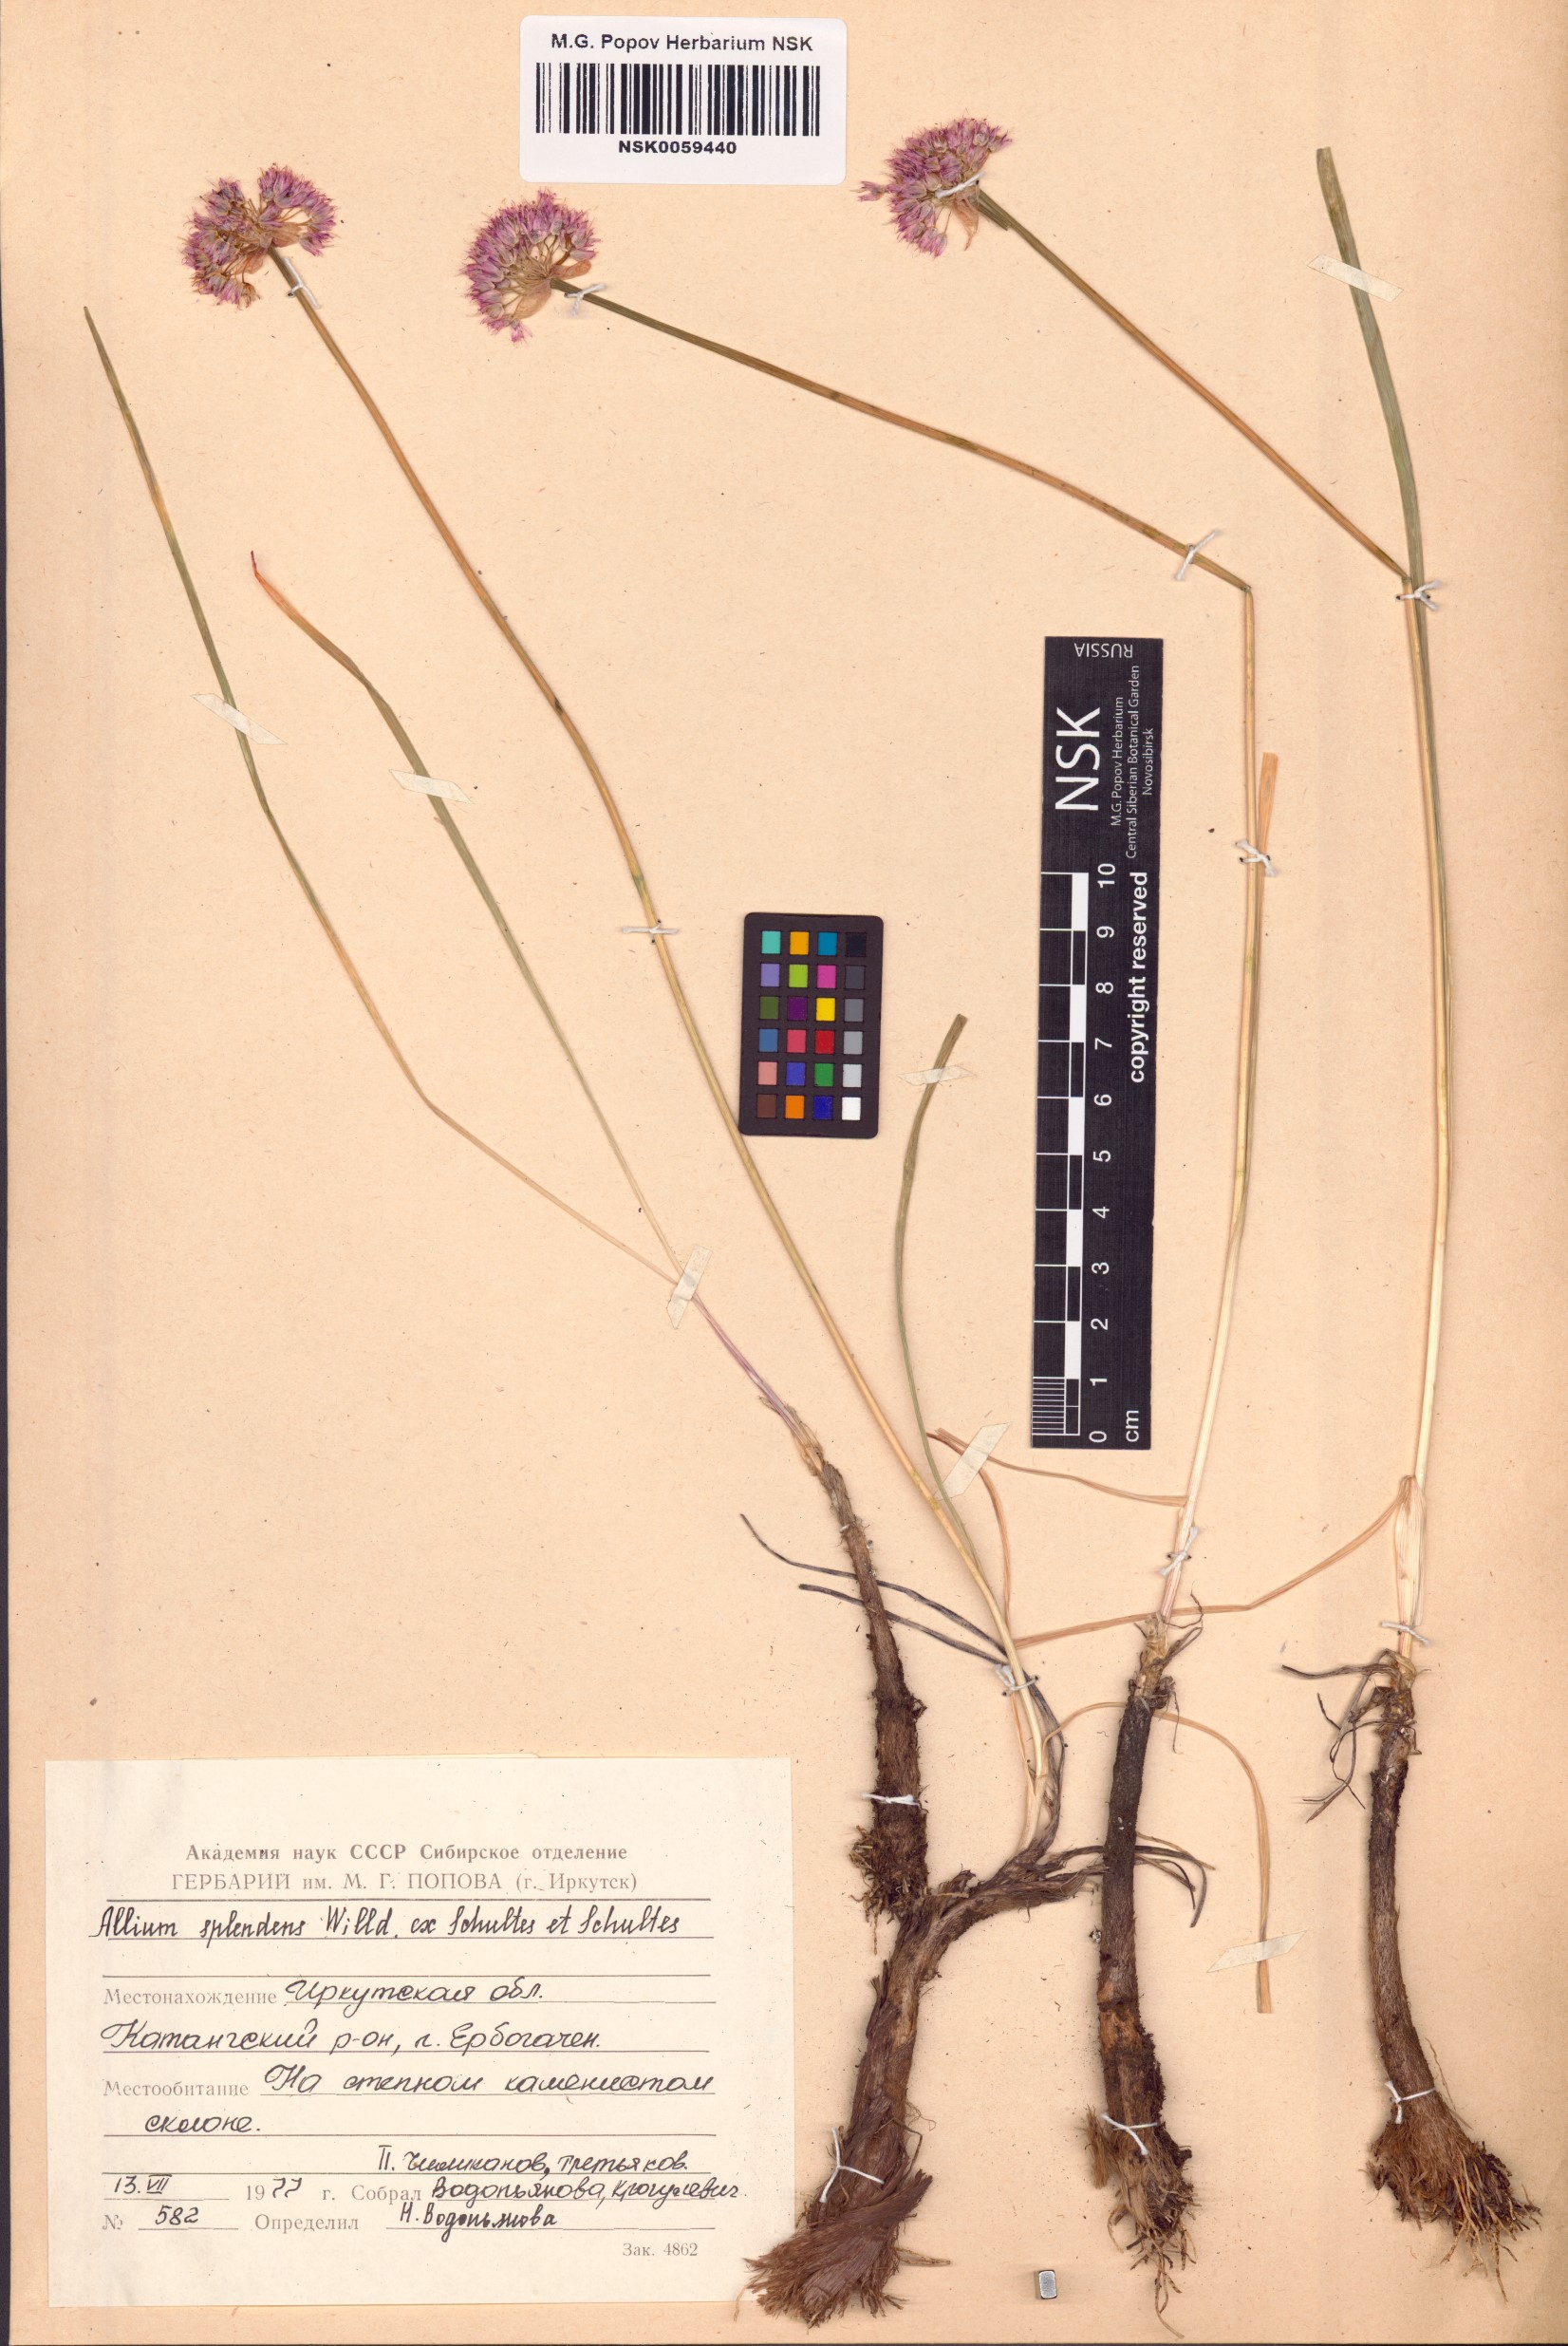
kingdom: Plantae
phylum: Tracheophyta
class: Liliopsida
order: Asparagales
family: Amaryllidaceae
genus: Allium
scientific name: Allium splendens
